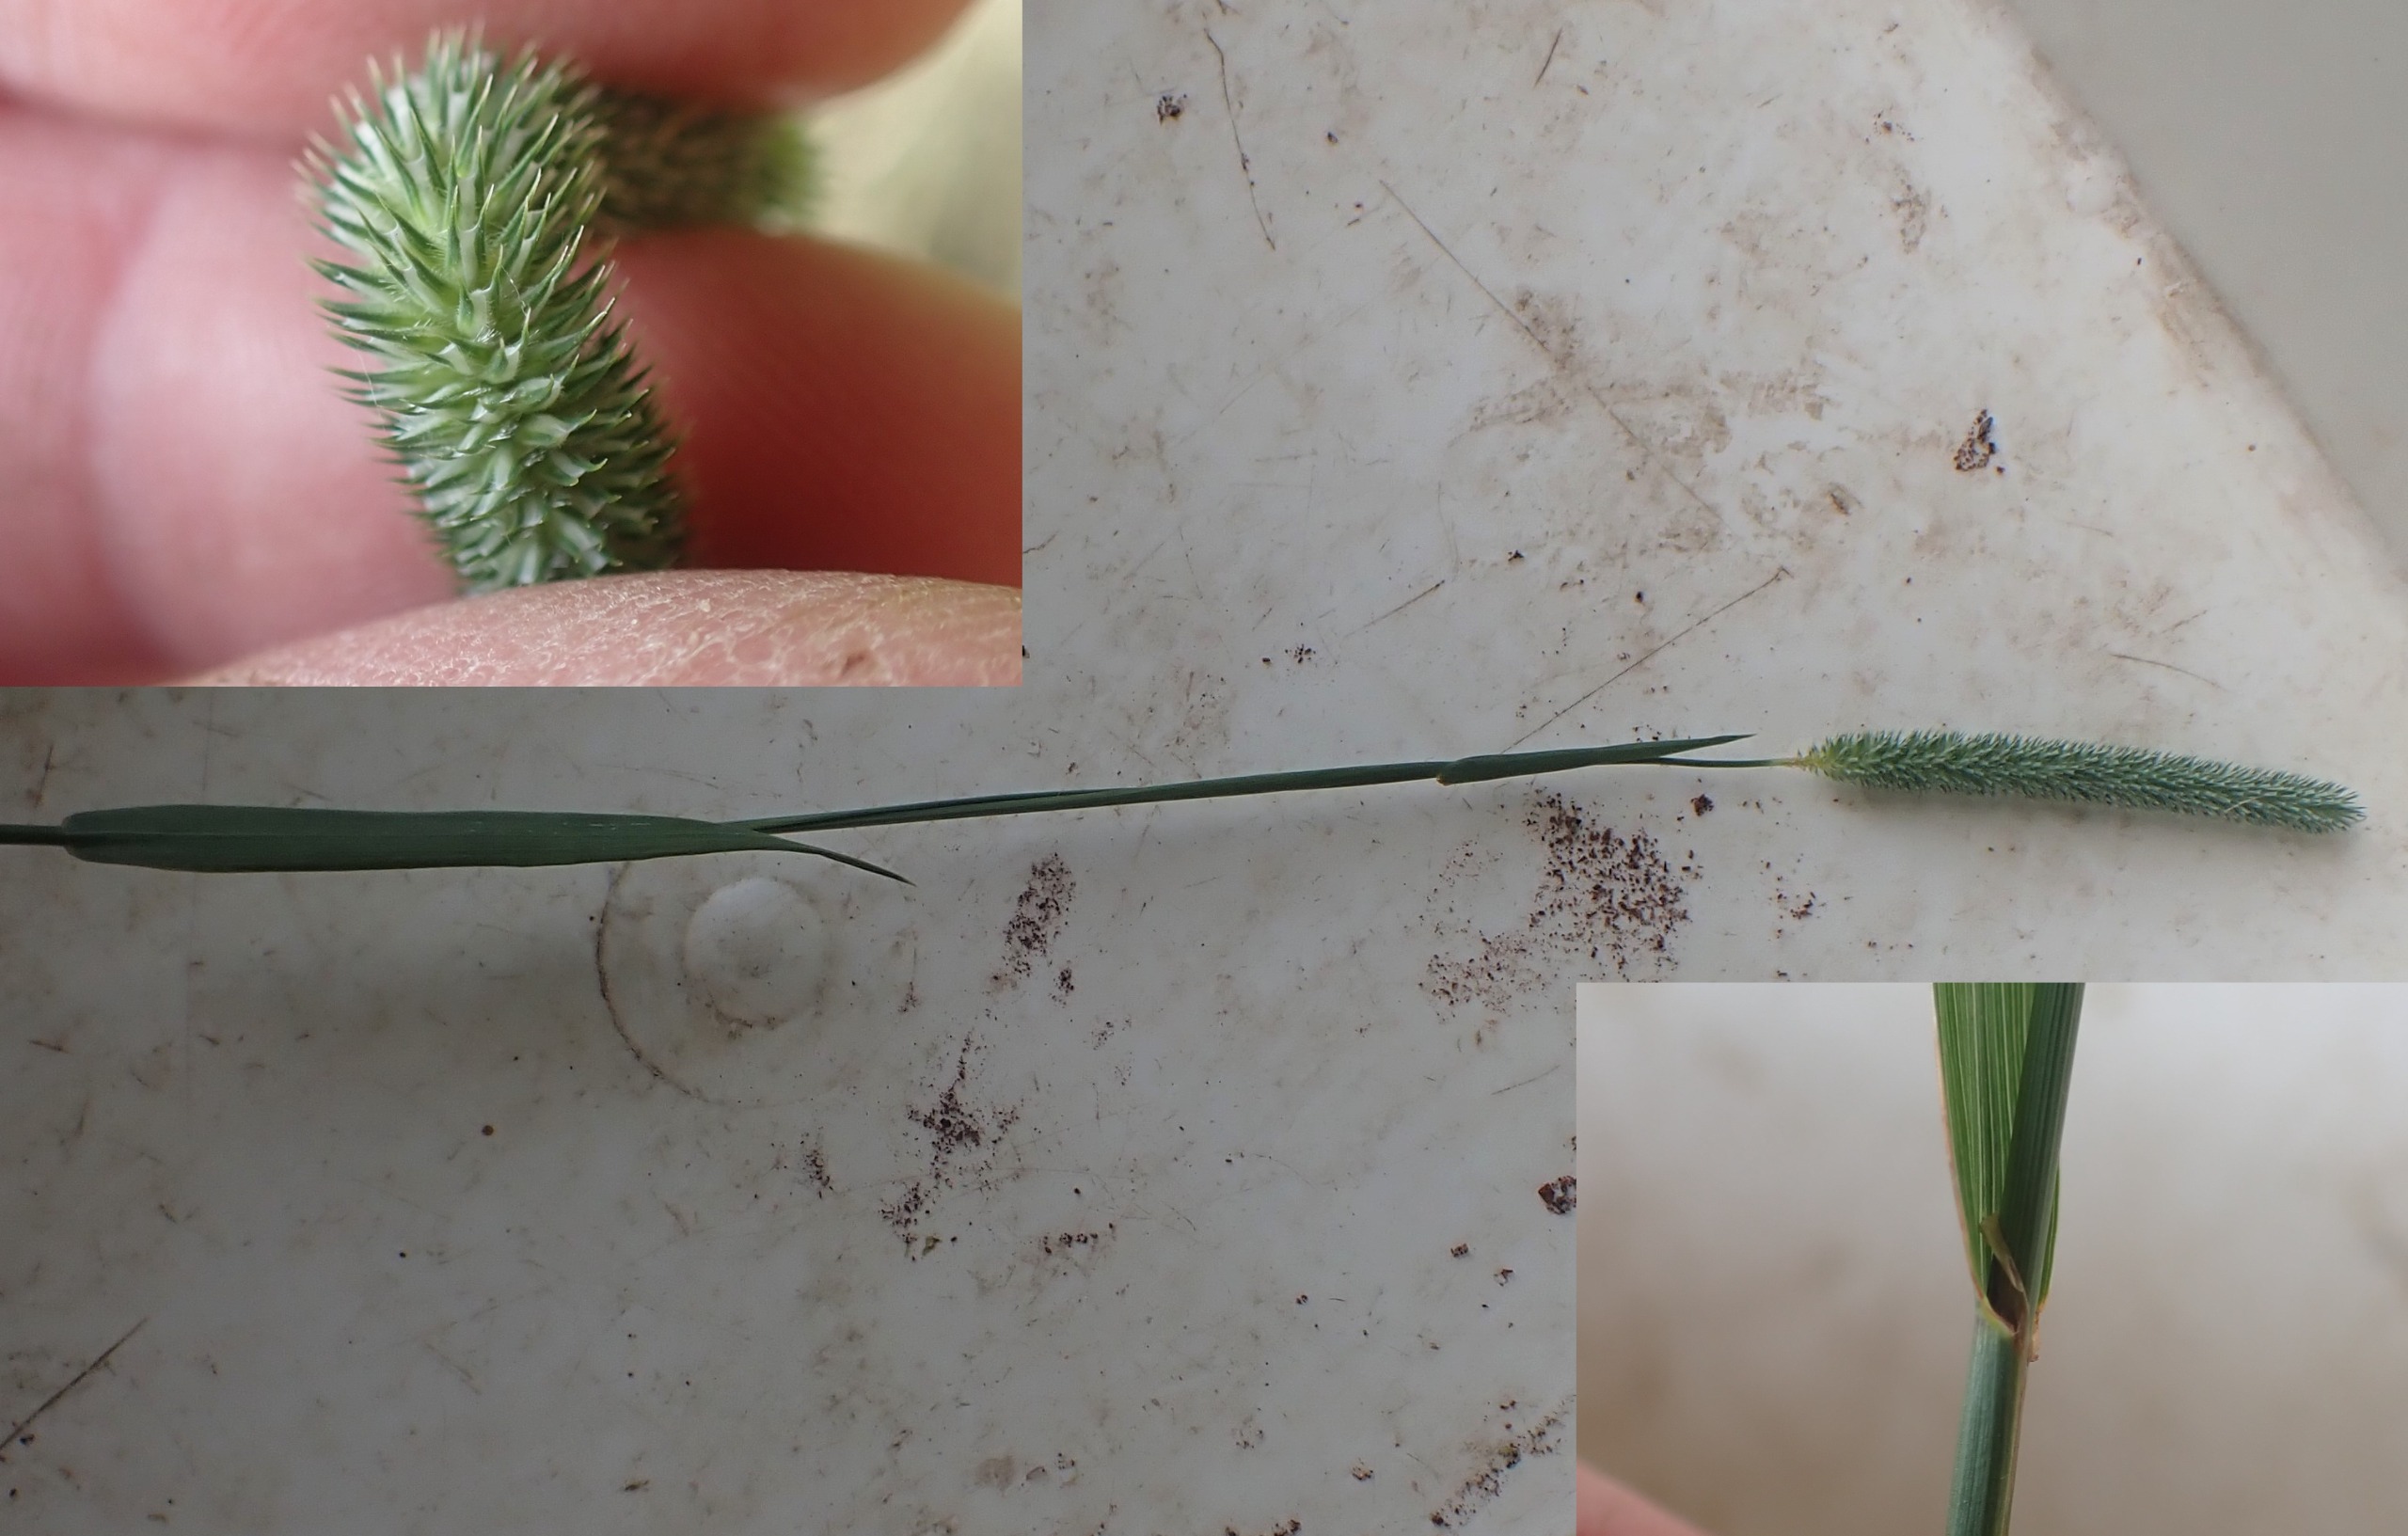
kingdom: Plantae
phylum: Tracheophyta
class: Liliopsida
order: Poales
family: Poaceae
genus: Phleum
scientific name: Phleum pratense
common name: Eng-rottehale
